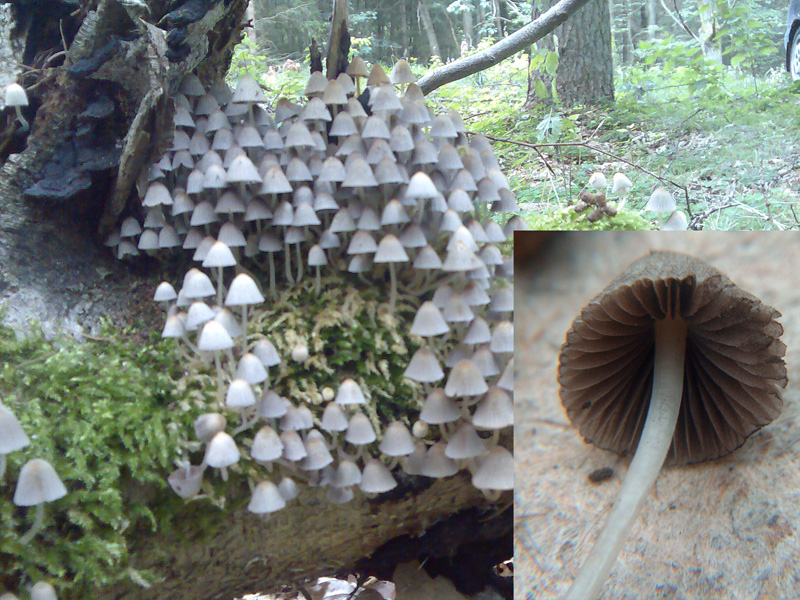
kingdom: Fungi
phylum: Basidiomycota
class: Agaricomycetes
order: Agaricales
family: Psathyrellaceae
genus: Coprinellus
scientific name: Coprinellus disseminatus
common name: bredsået blækhat
